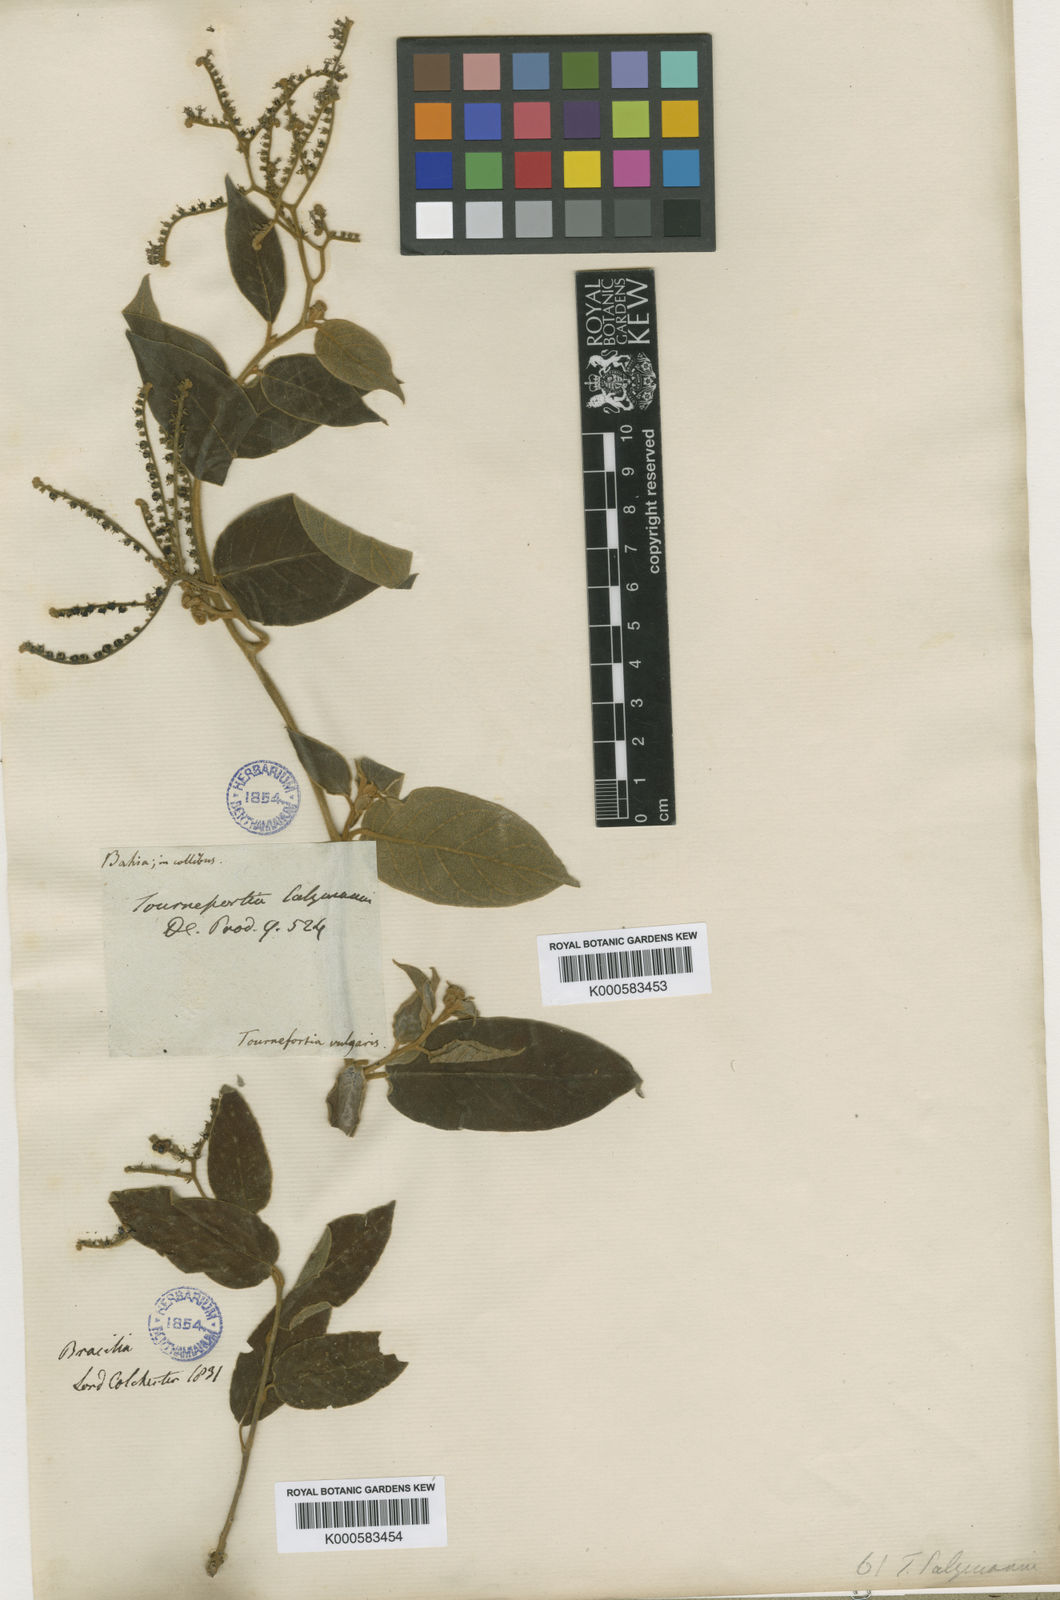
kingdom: Plantae
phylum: Tracheophyta
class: Magnoliopsida
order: Boraginales
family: Heliotropiaceae
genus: Myriopus
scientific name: Myriopus salzmannii
